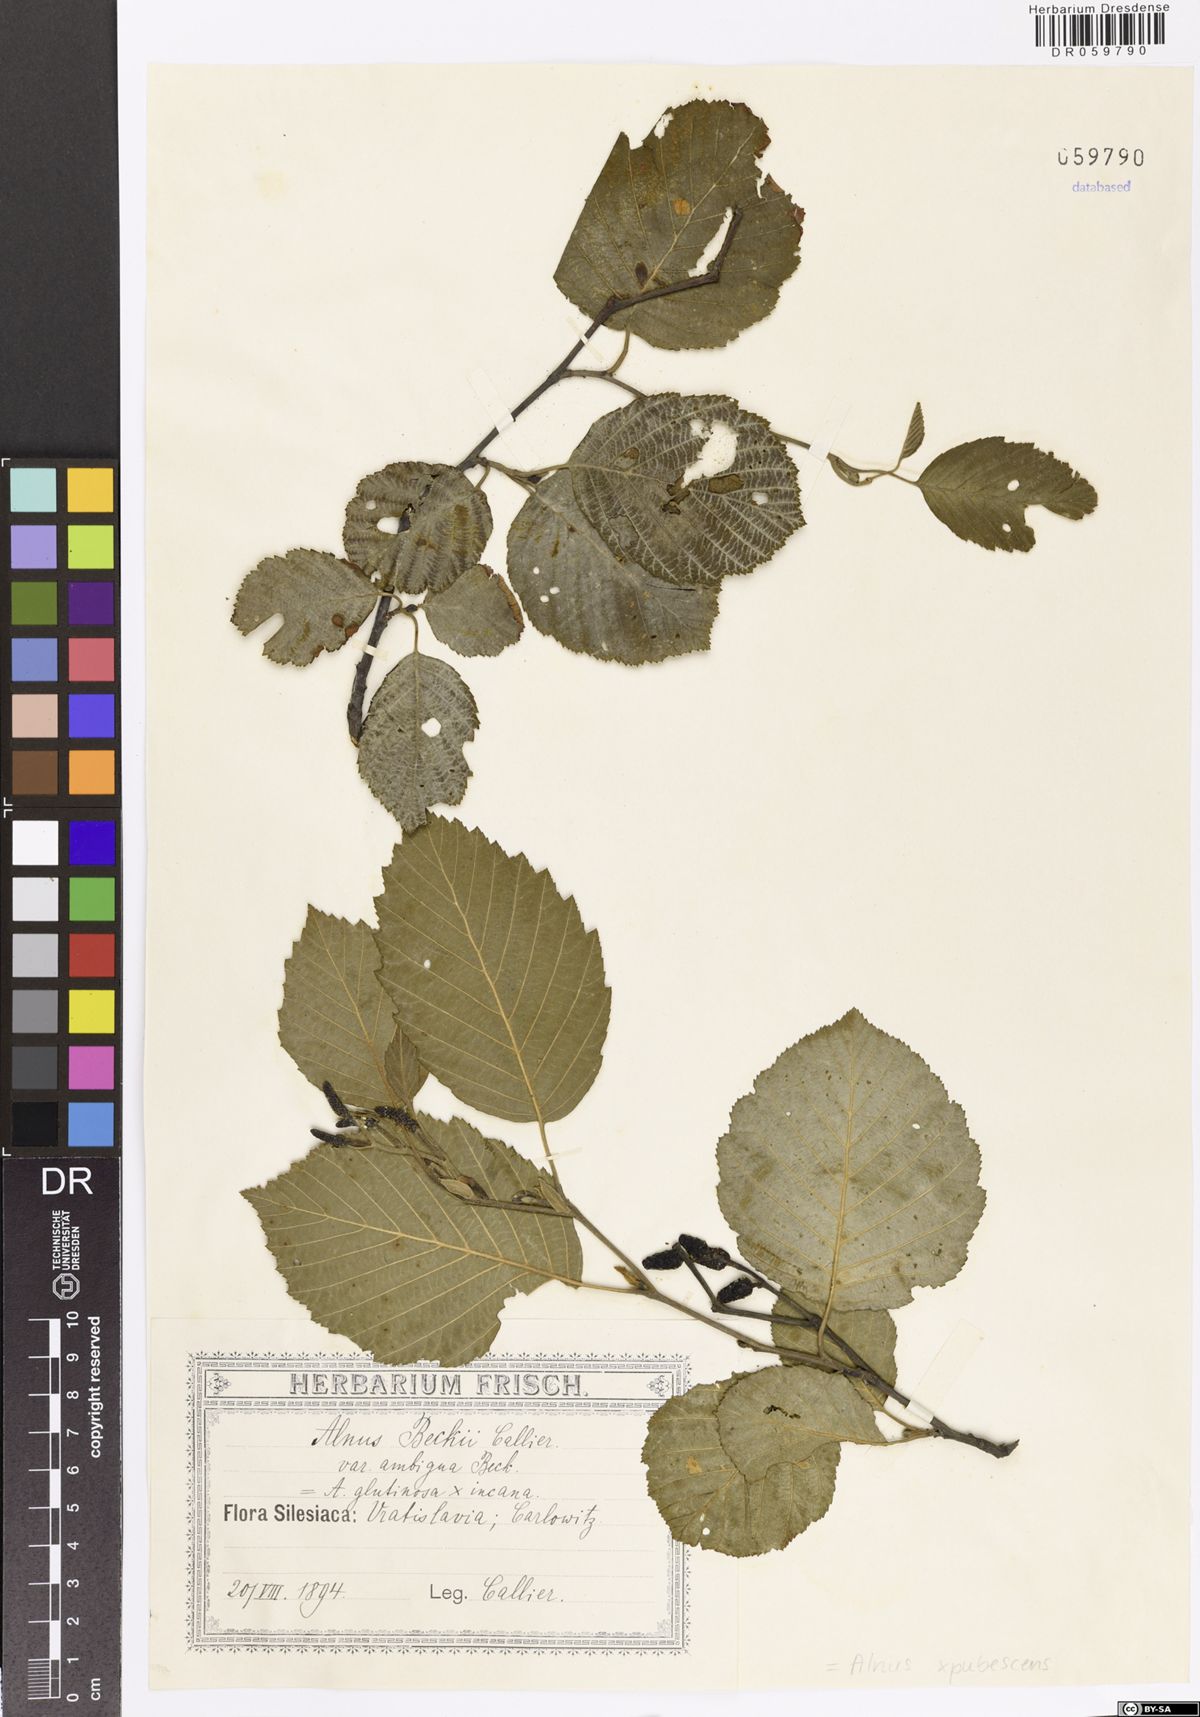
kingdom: Plantae
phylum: Tracheophyta
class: Magnoliopsida
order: Fagales
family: Betulaceae
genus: Alnus
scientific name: Alnus pubescens
